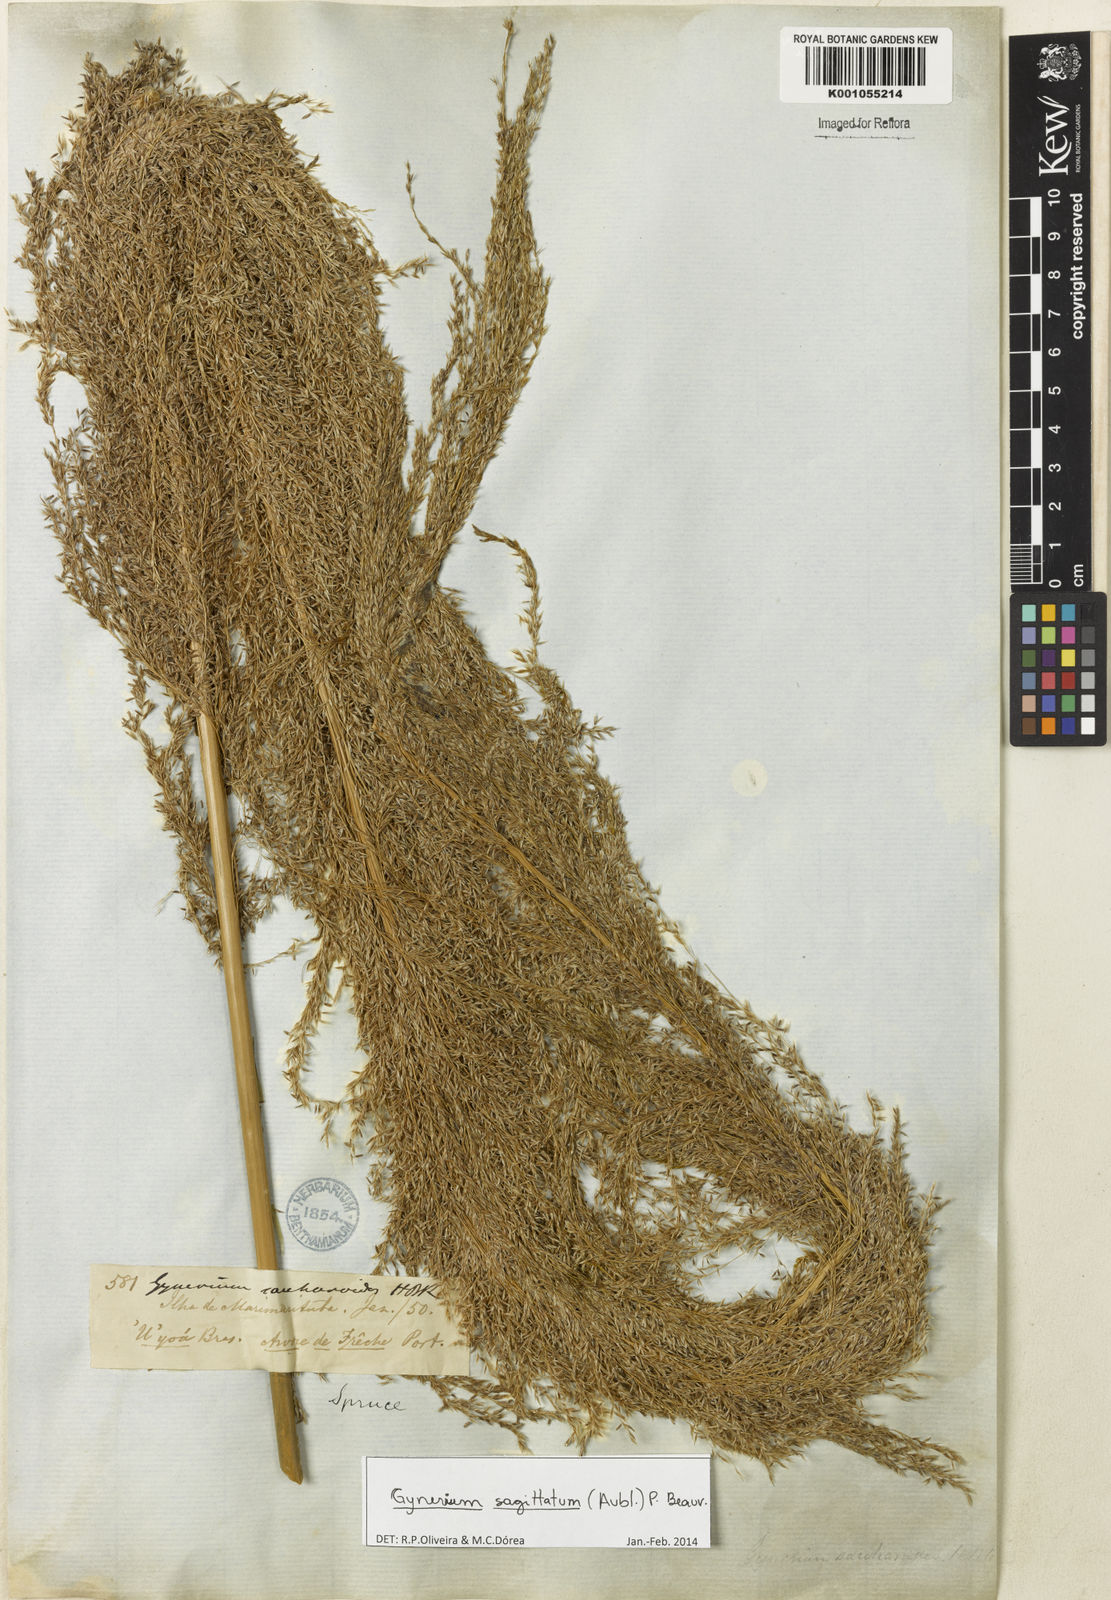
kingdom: Plantae
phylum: Tracheophyta
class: Liliopsida
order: Poales
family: Poaceae
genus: Gynerium
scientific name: Gynerium sagittatum
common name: Wild cane
